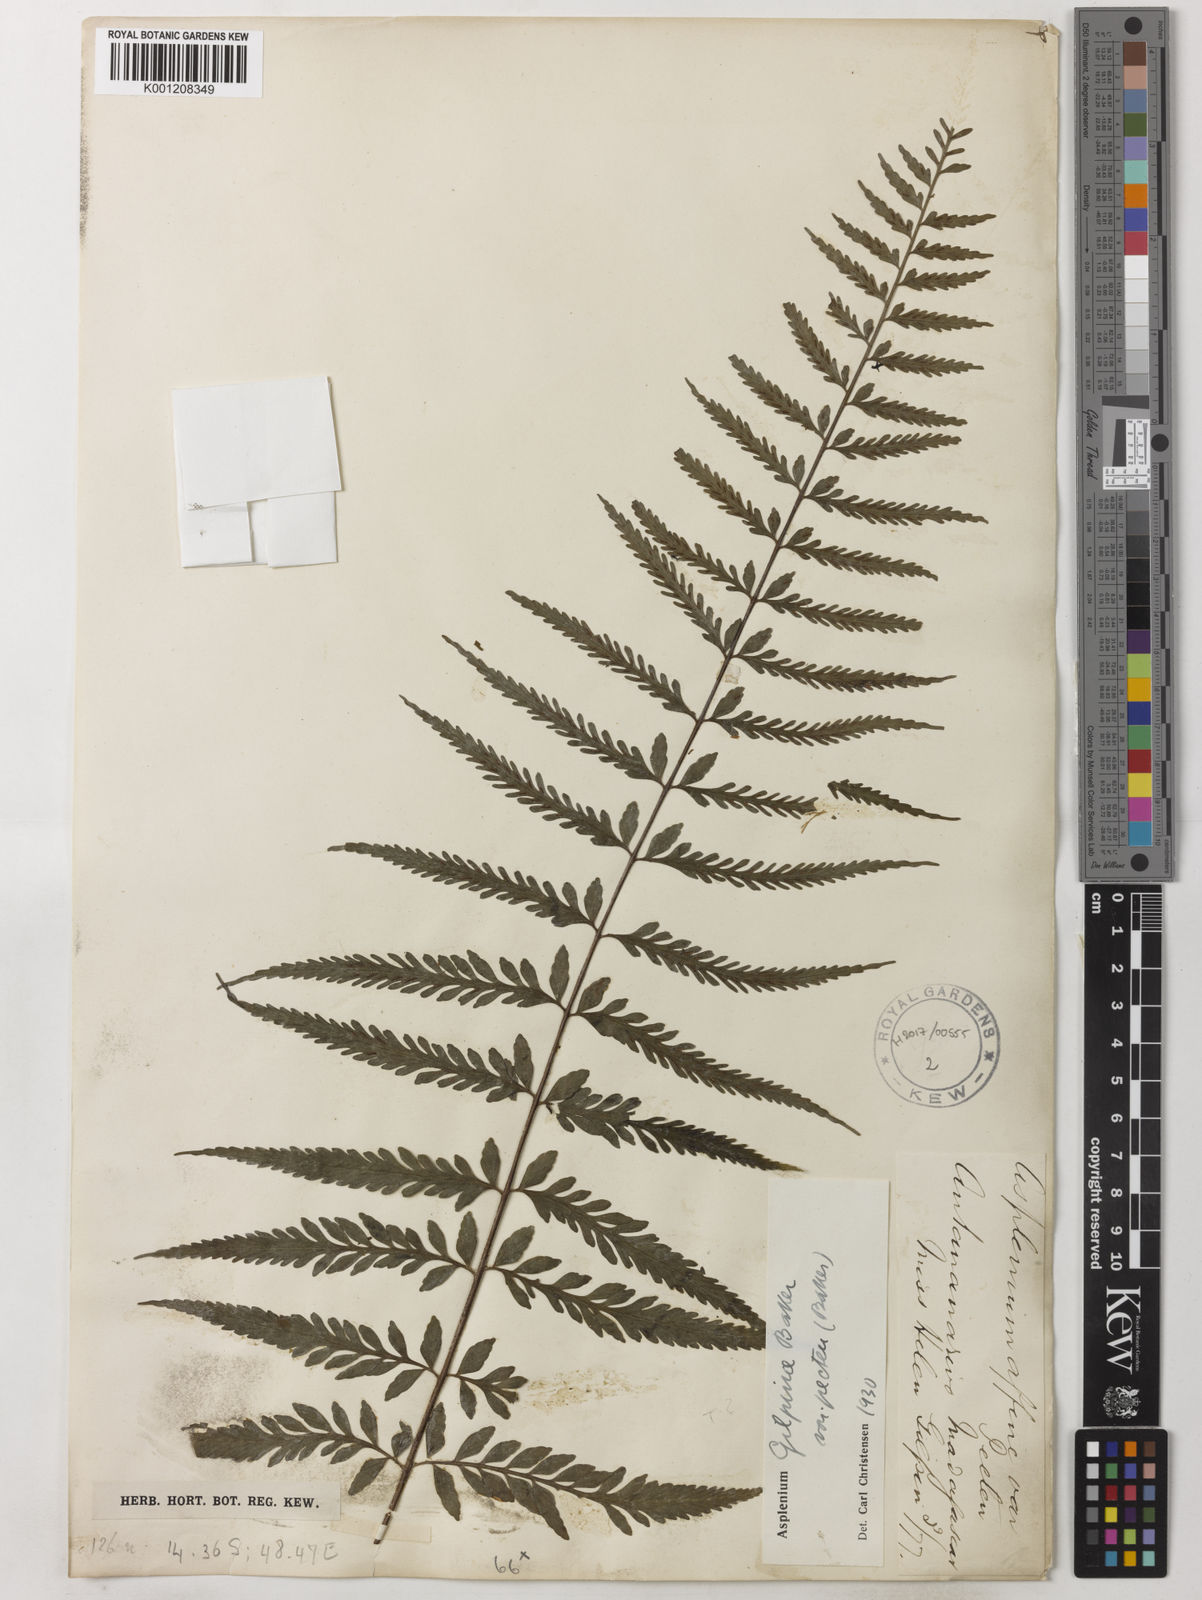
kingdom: Plantae
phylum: Tracheophyta
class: Polypodiopsida
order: Polypodiales
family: Aspleniaceae
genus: Asplenium
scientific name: Asplenium herpetopteris
